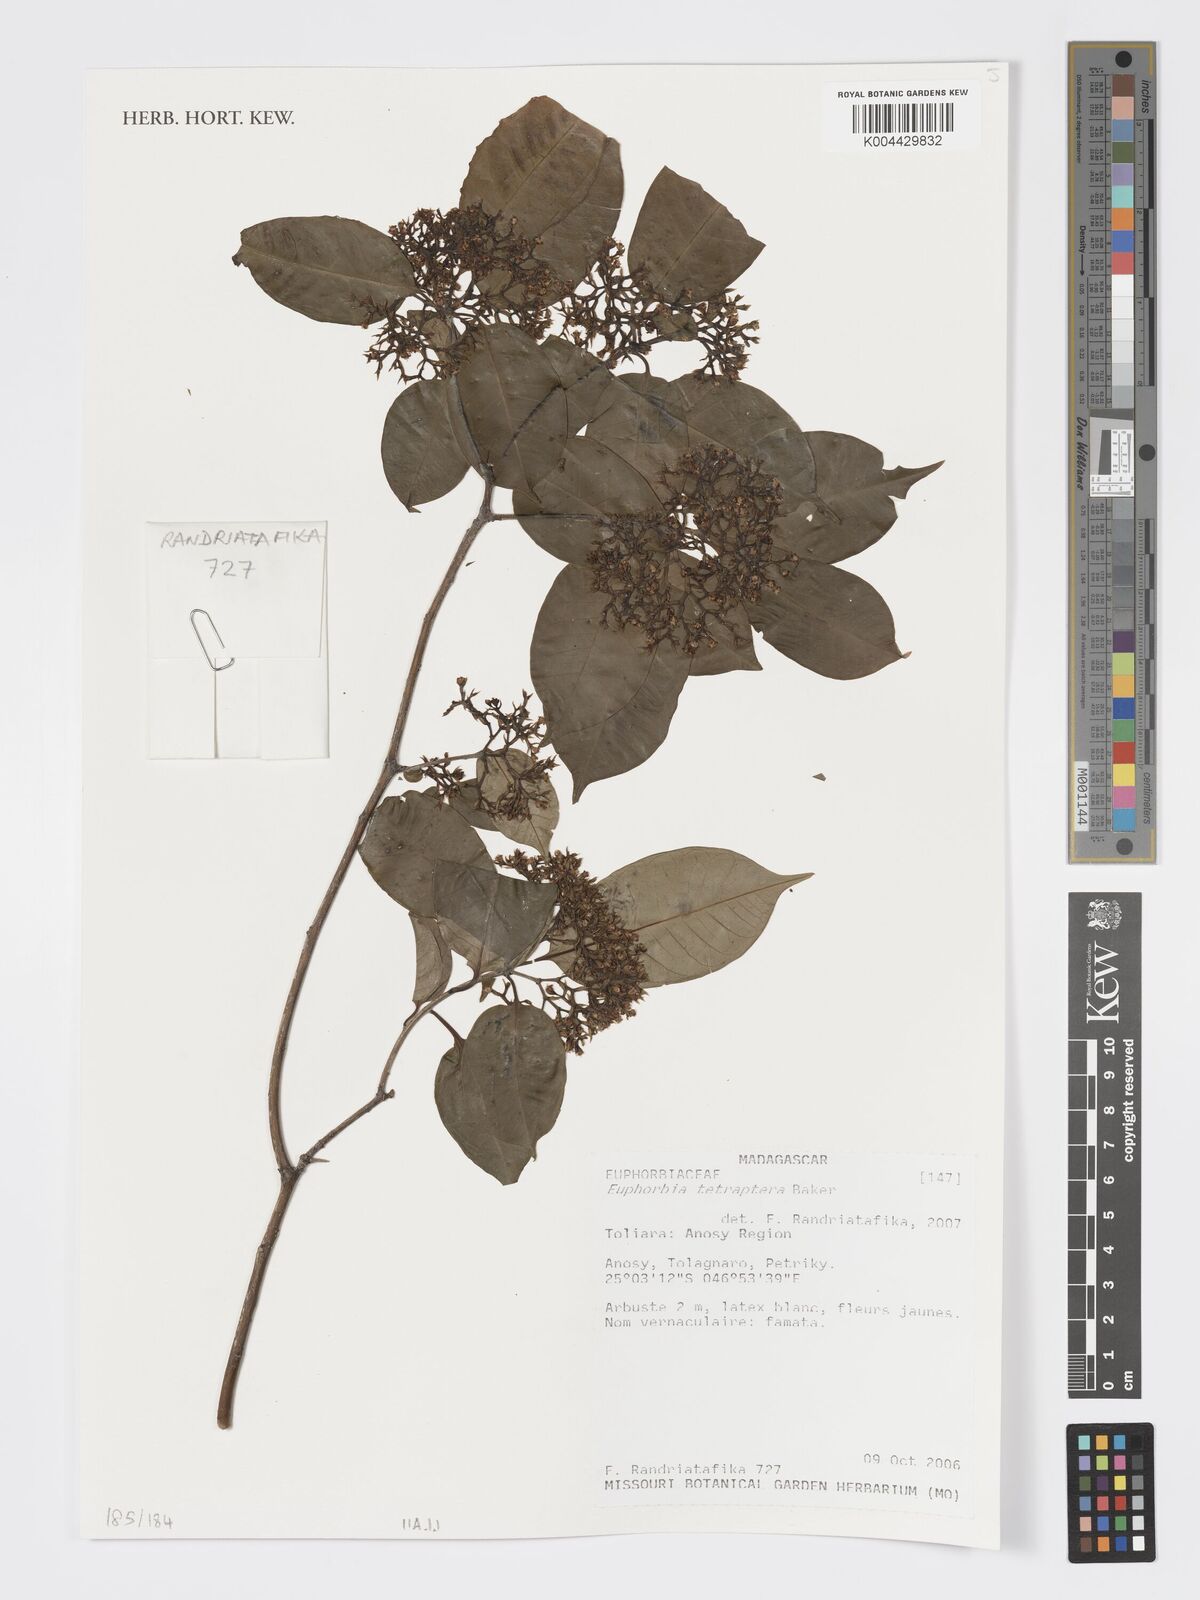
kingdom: Plantae
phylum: Tracheophyta
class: Magnoliopsida
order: Malpighiales
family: Euphorbiaceae
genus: Euphorbia
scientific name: Euphorbia tetraptera
